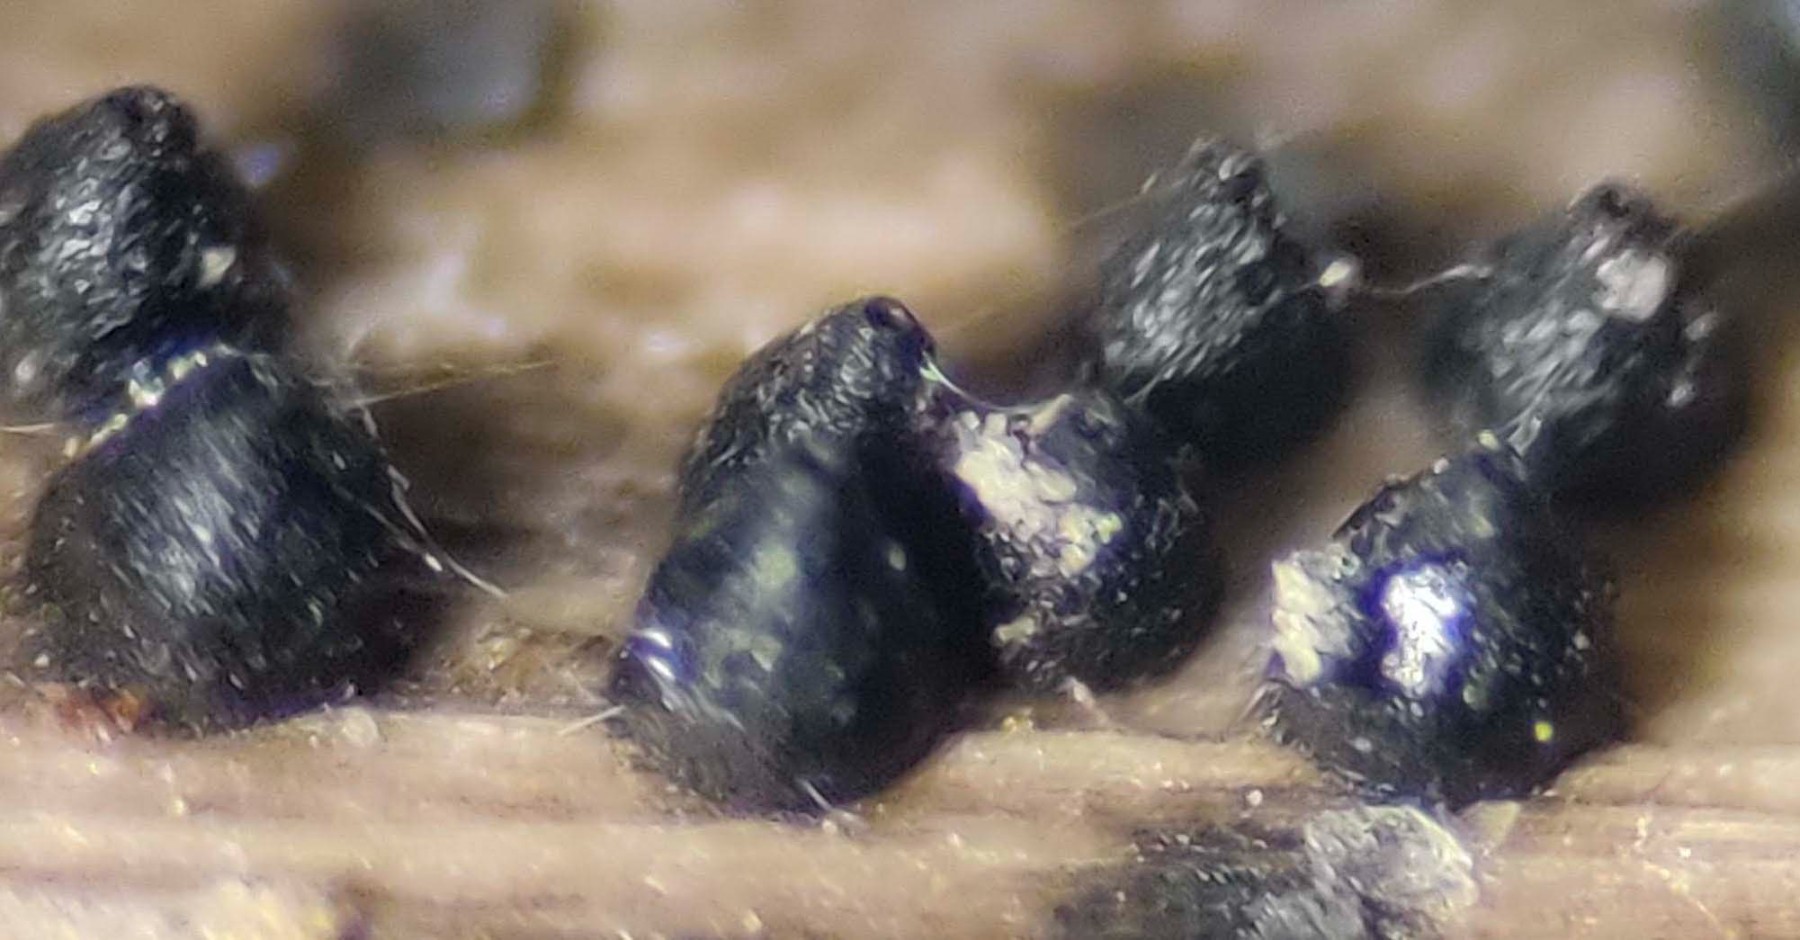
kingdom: Fungi
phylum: Ascomycota
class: Dothideomycetes
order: Pleosporales
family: Leptosphaeriaceae
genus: Leptosphaeria
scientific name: Leptosphaeria acuta
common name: spids kulkegle
